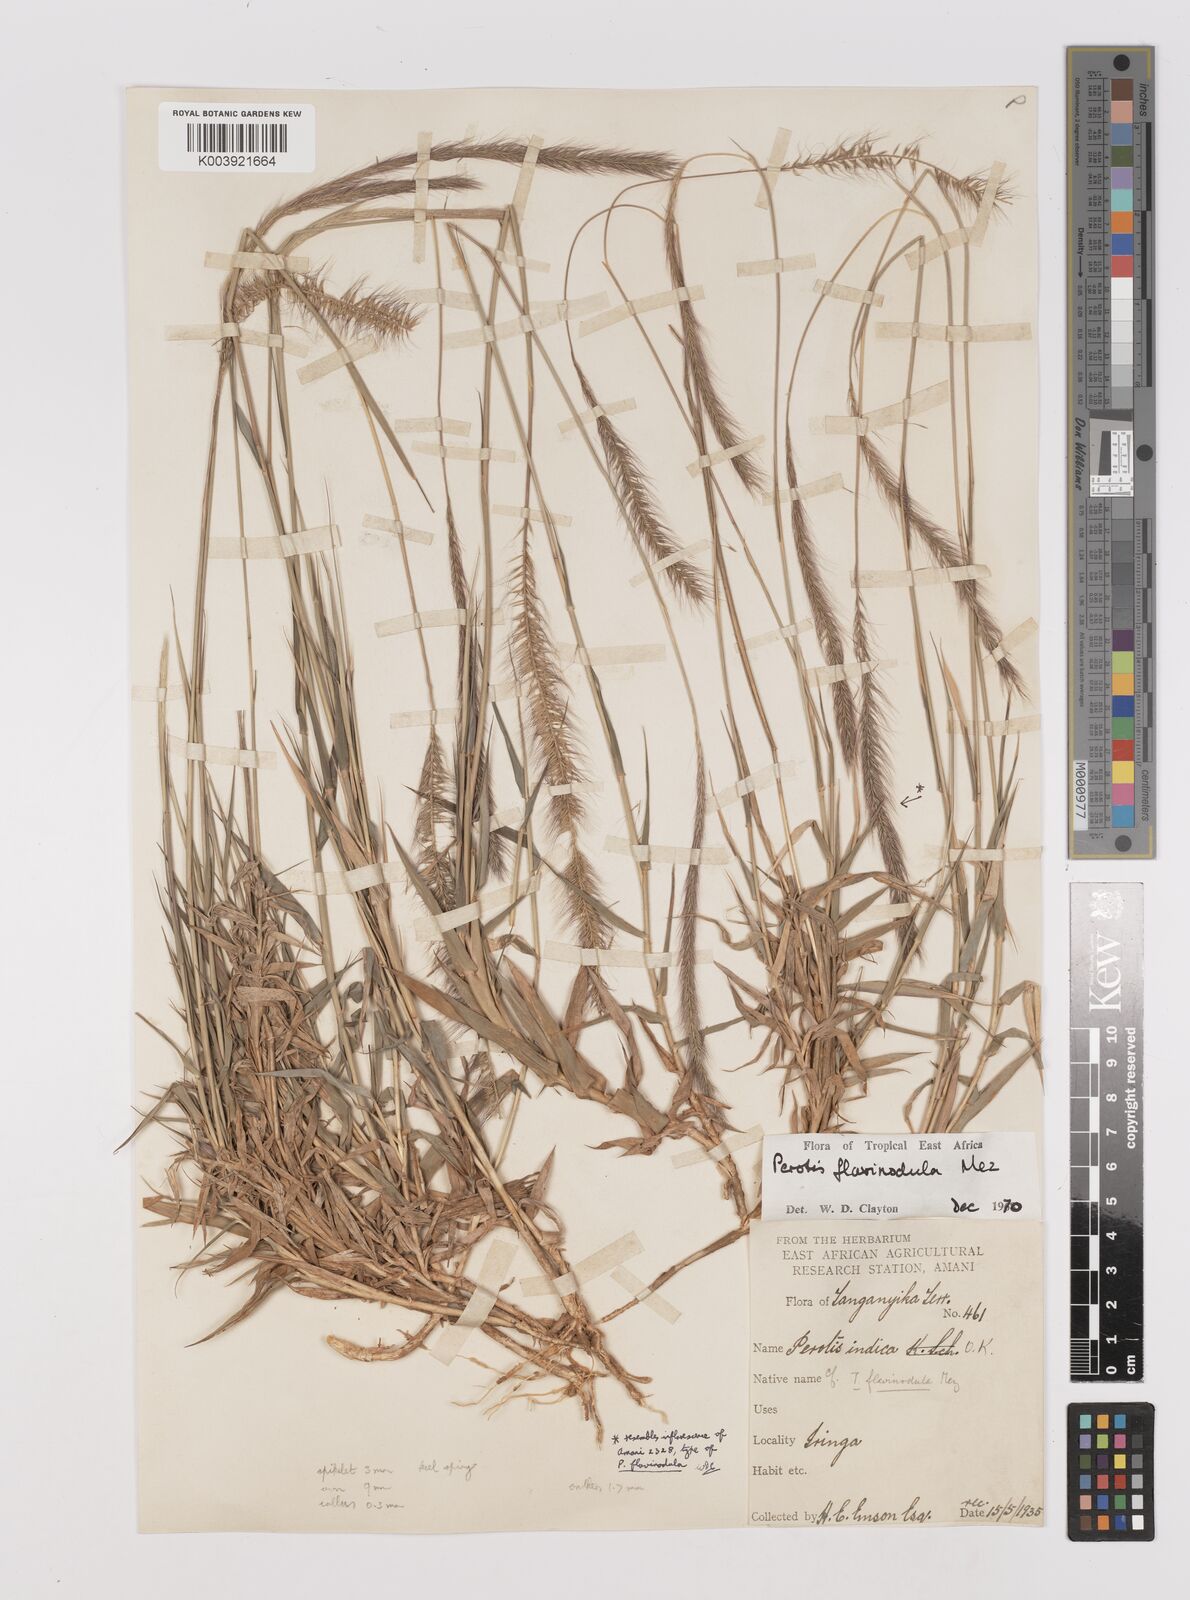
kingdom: Plantae
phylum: Tracheophyta
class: Liliopsida
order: Poales
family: Poaceae
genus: Perotis
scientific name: Perotis flavinodula
